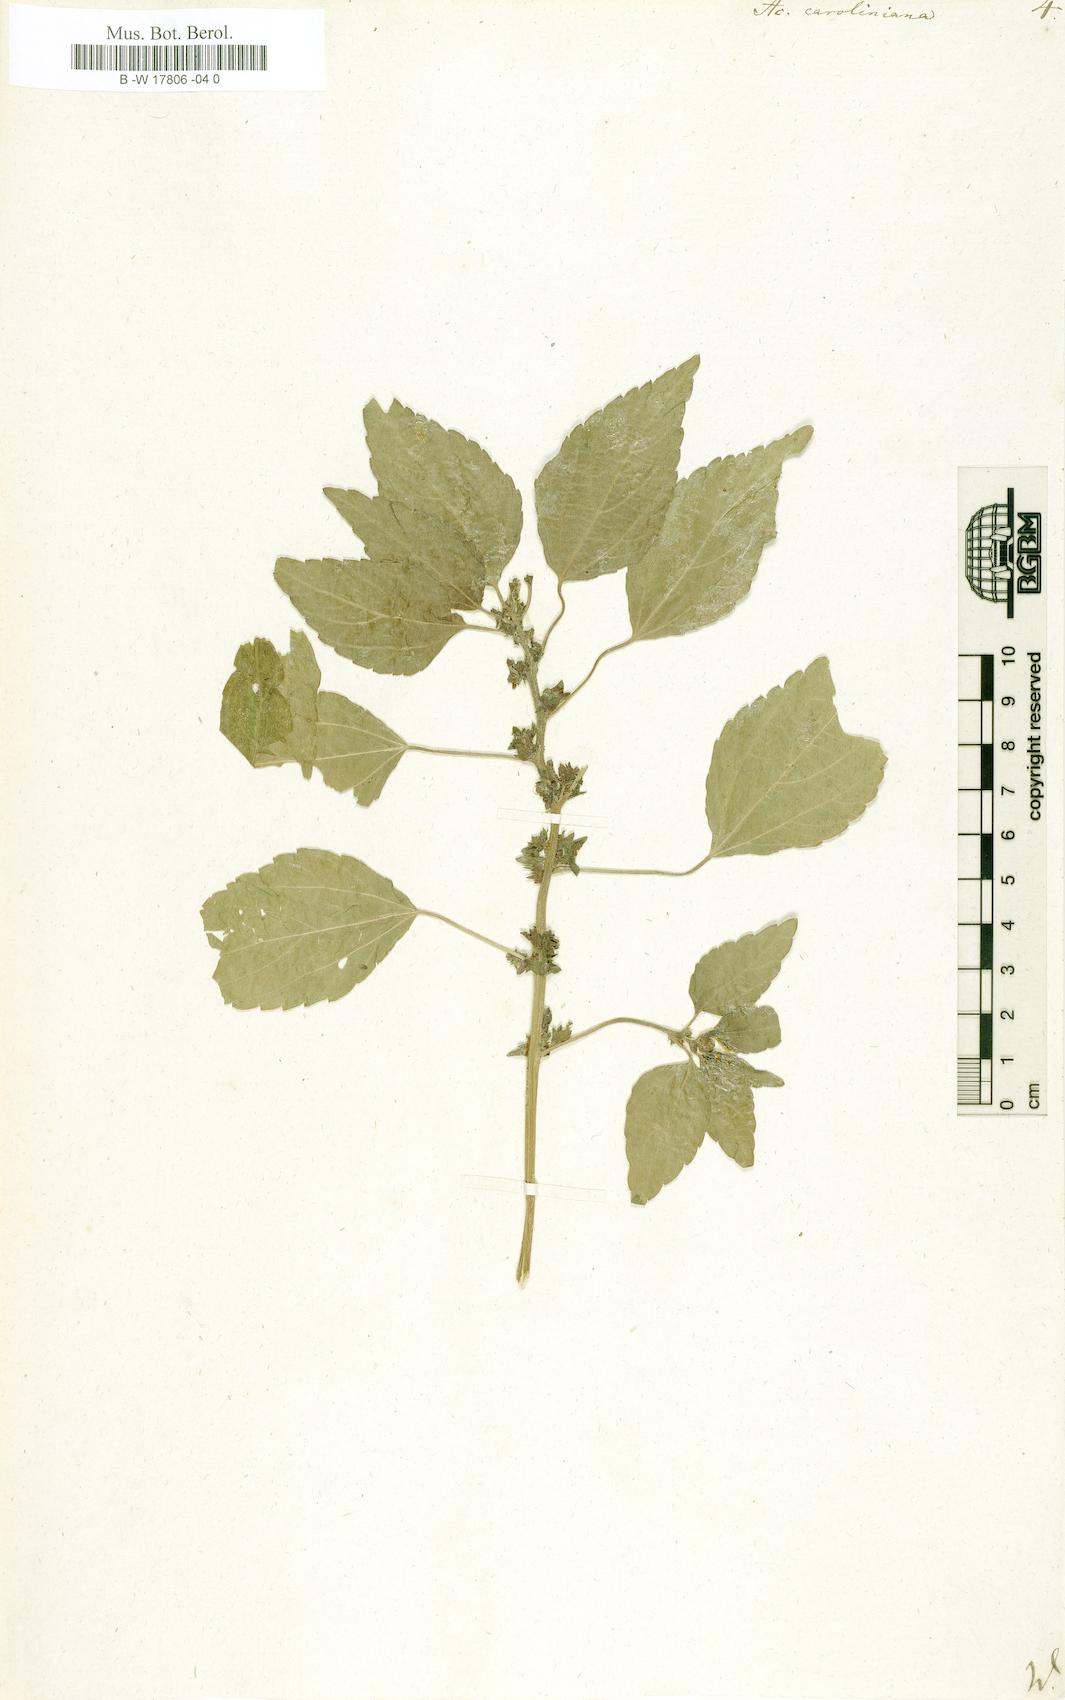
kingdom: Plantae
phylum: Tracheophyta
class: Magnoliopsida
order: Malpighiales
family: Euphorbiaceae
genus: Acalypha
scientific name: Acalypha virginica
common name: Virginia copperleaf
